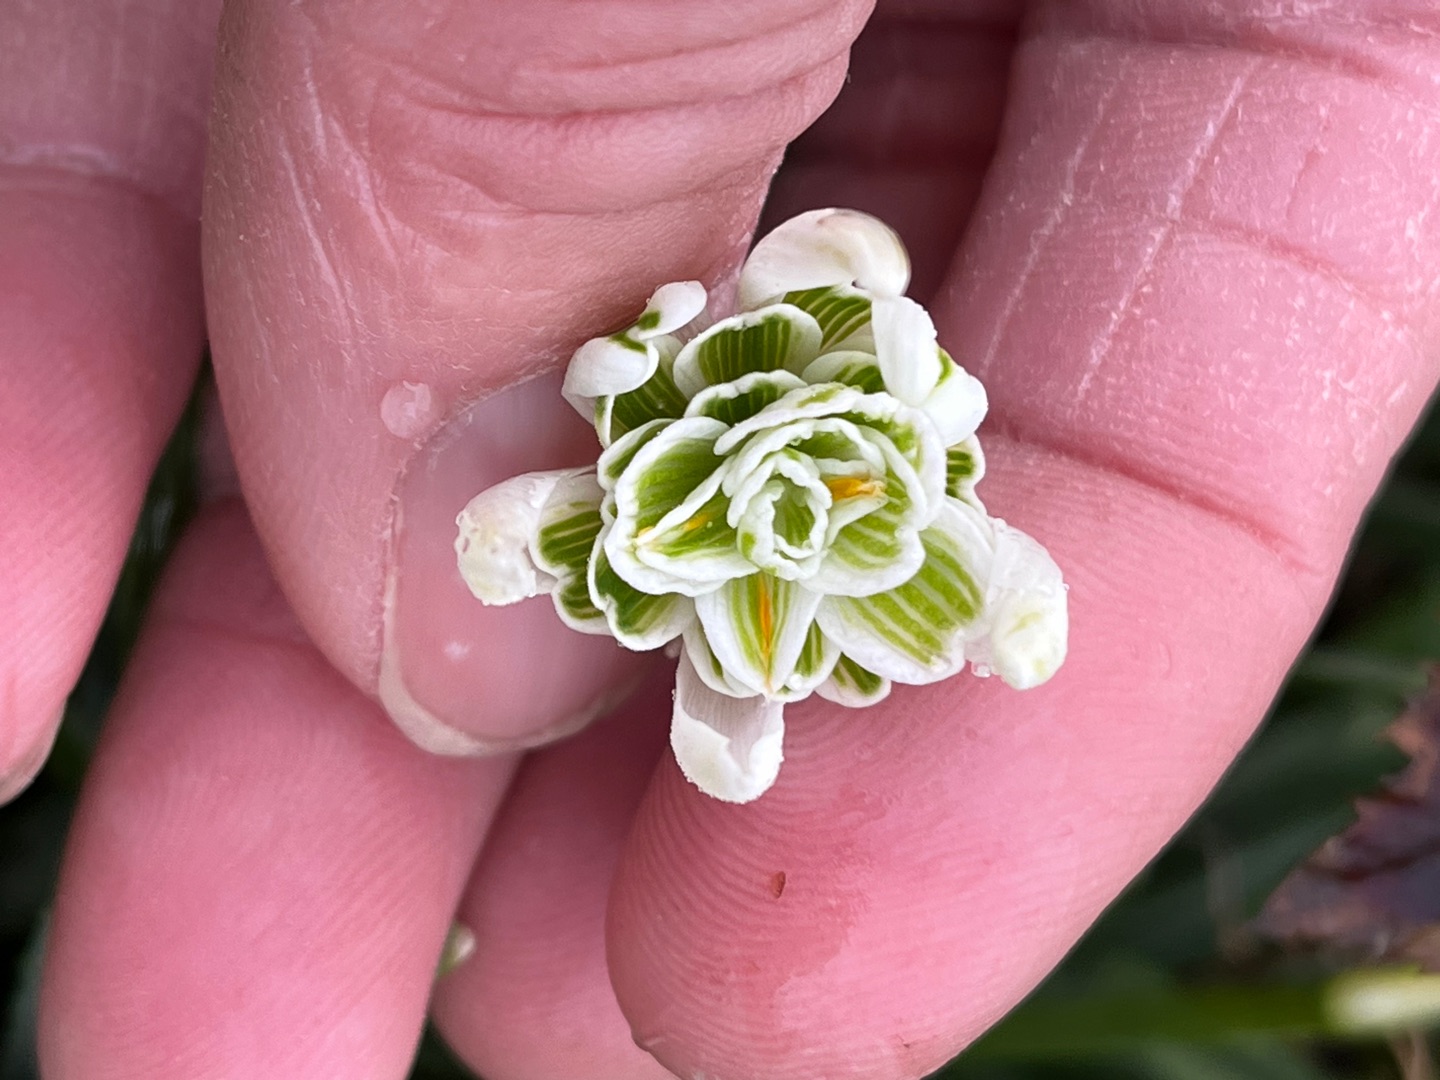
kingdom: Plantae
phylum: Tracheophyta
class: Liliopsida
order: Asparagales
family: Amaryllidaceae
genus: Galanthus
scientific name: Galanthus nivalis
